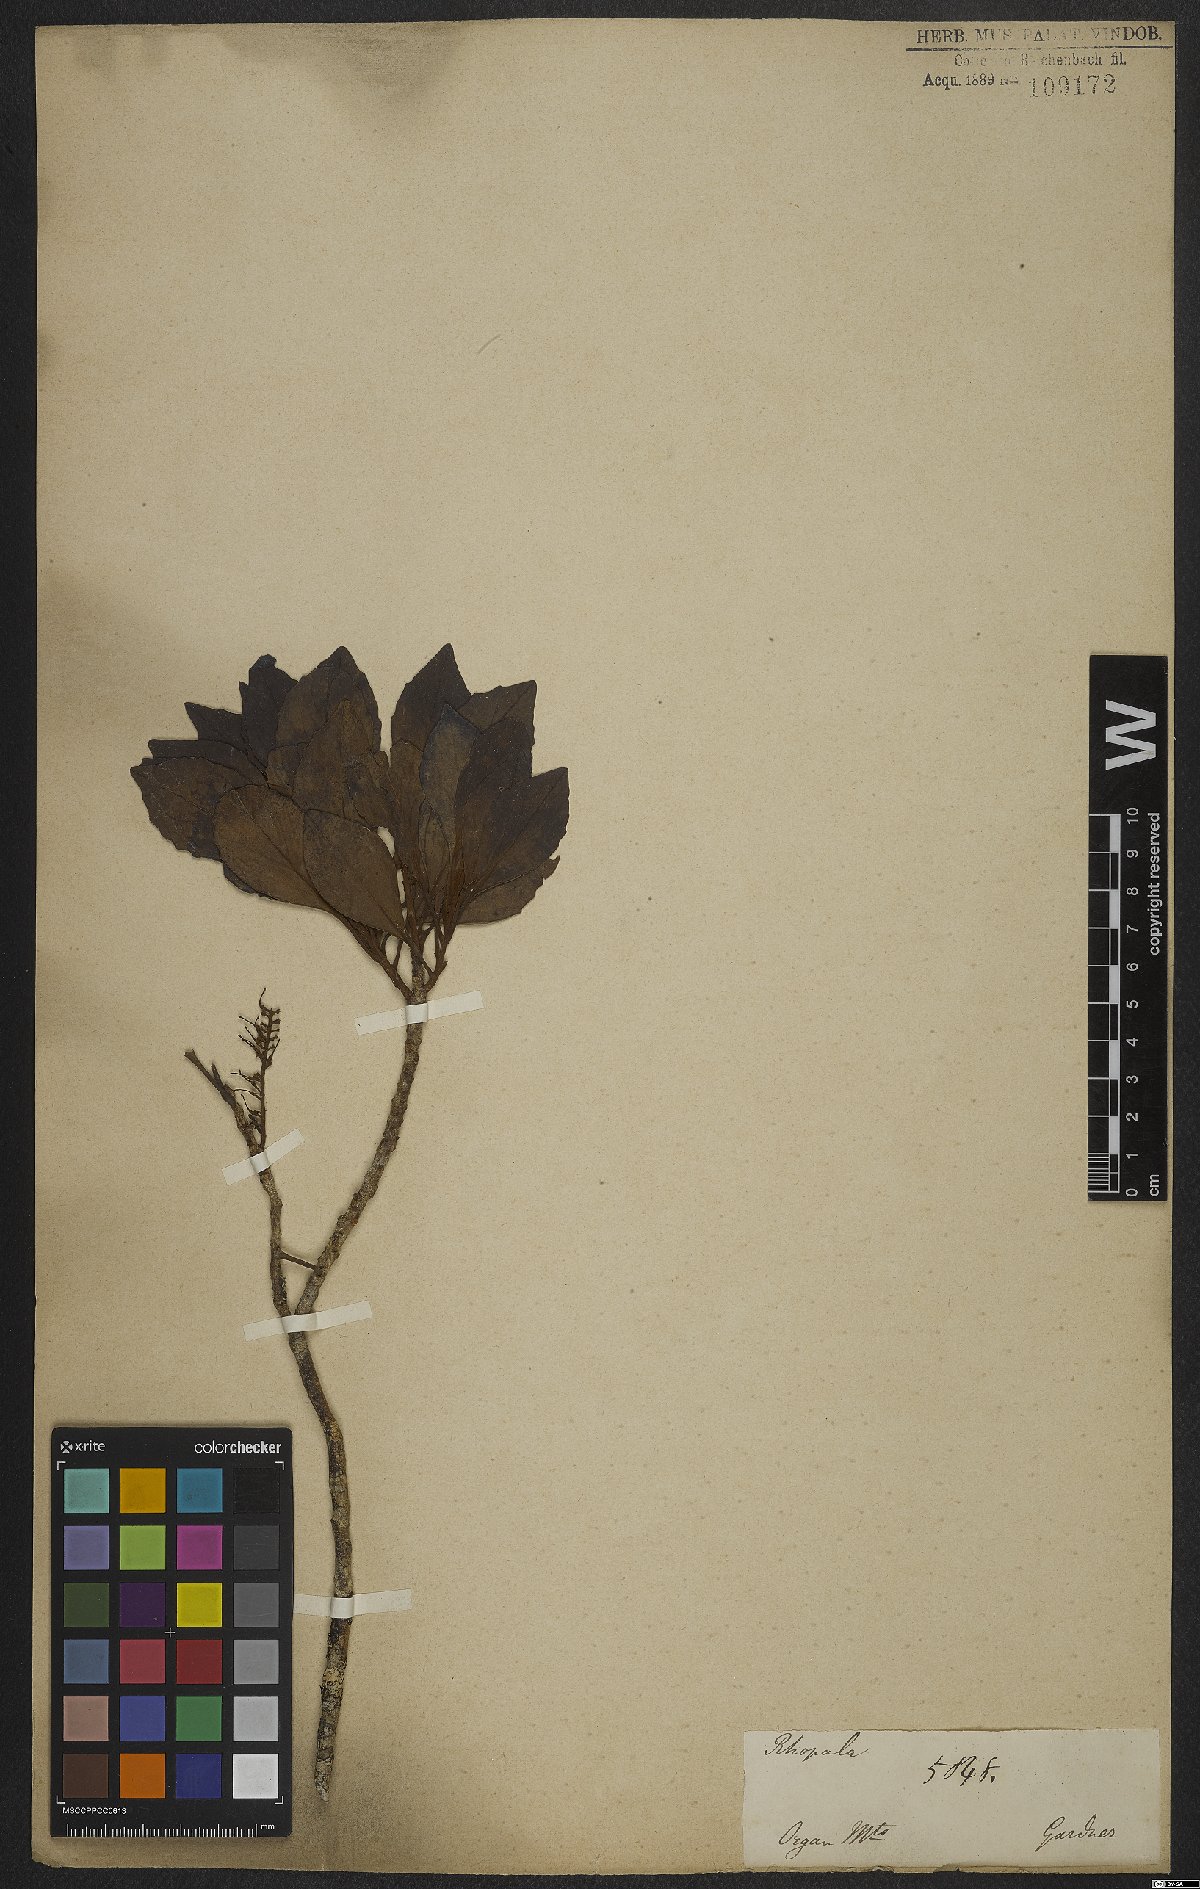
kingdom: Plantae
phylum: Tracheophyta
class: Magnoliopsida
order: Proteales
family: Proteaceae
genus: Roupala
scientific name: Roupala lucens
